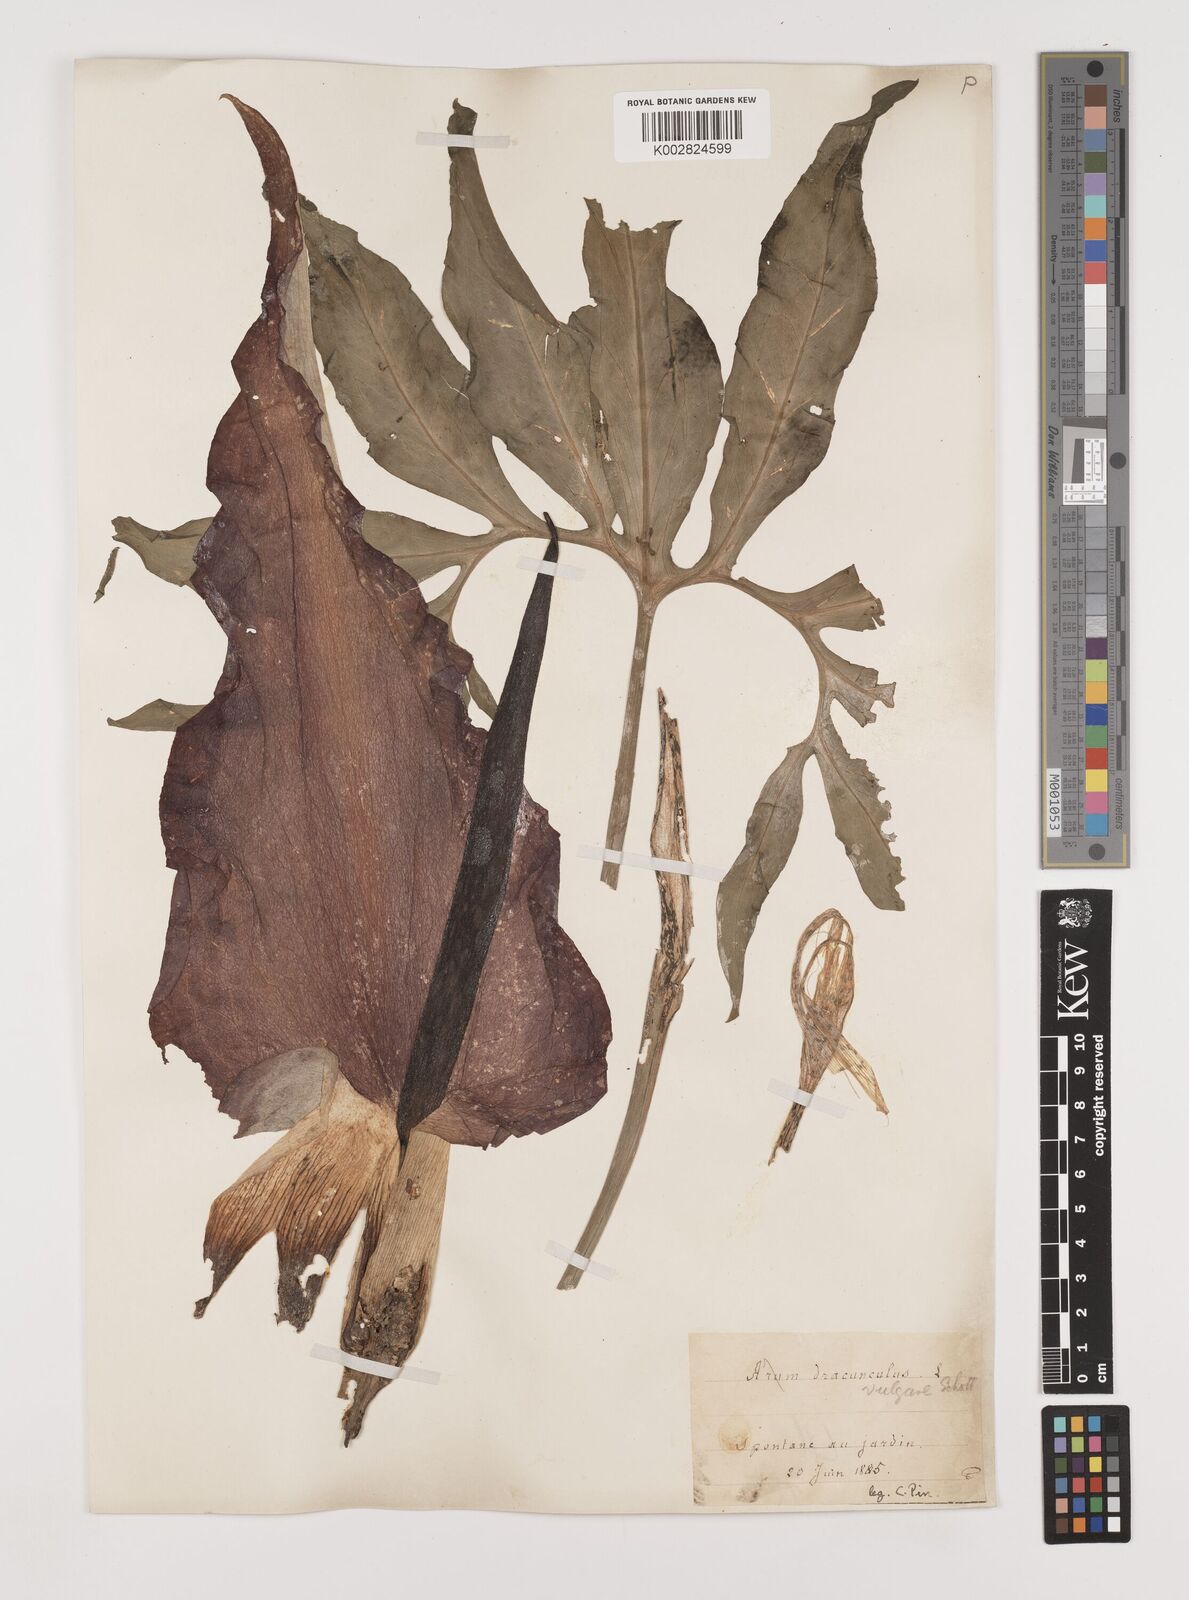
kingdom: Plantae
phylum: Tracheophyta
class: Liliopsida
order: Alismatales
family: Araceae
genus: Dracunculus
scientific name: Dracunculus vulgaris
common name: Dragon arum
